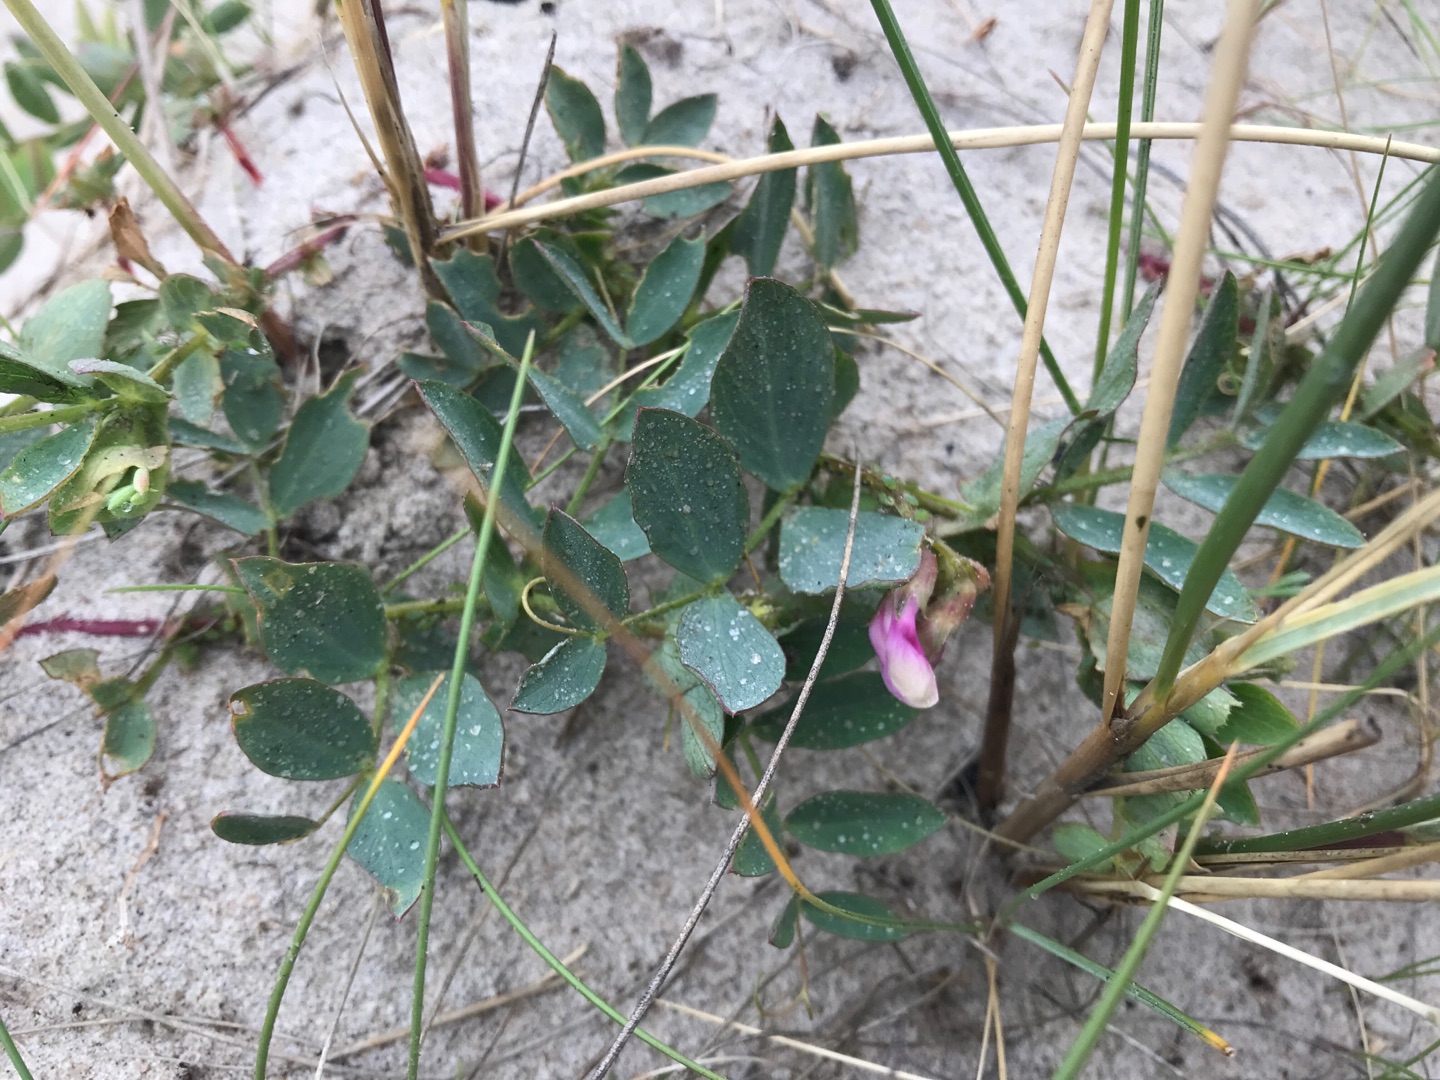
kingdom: Plantae
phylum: Tracheophyta
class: Magnoliopsida
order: Fabales
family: Fabaceae
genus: Lathyrus
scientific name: Lathyrus japonicus
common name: Klit-fladbælg
